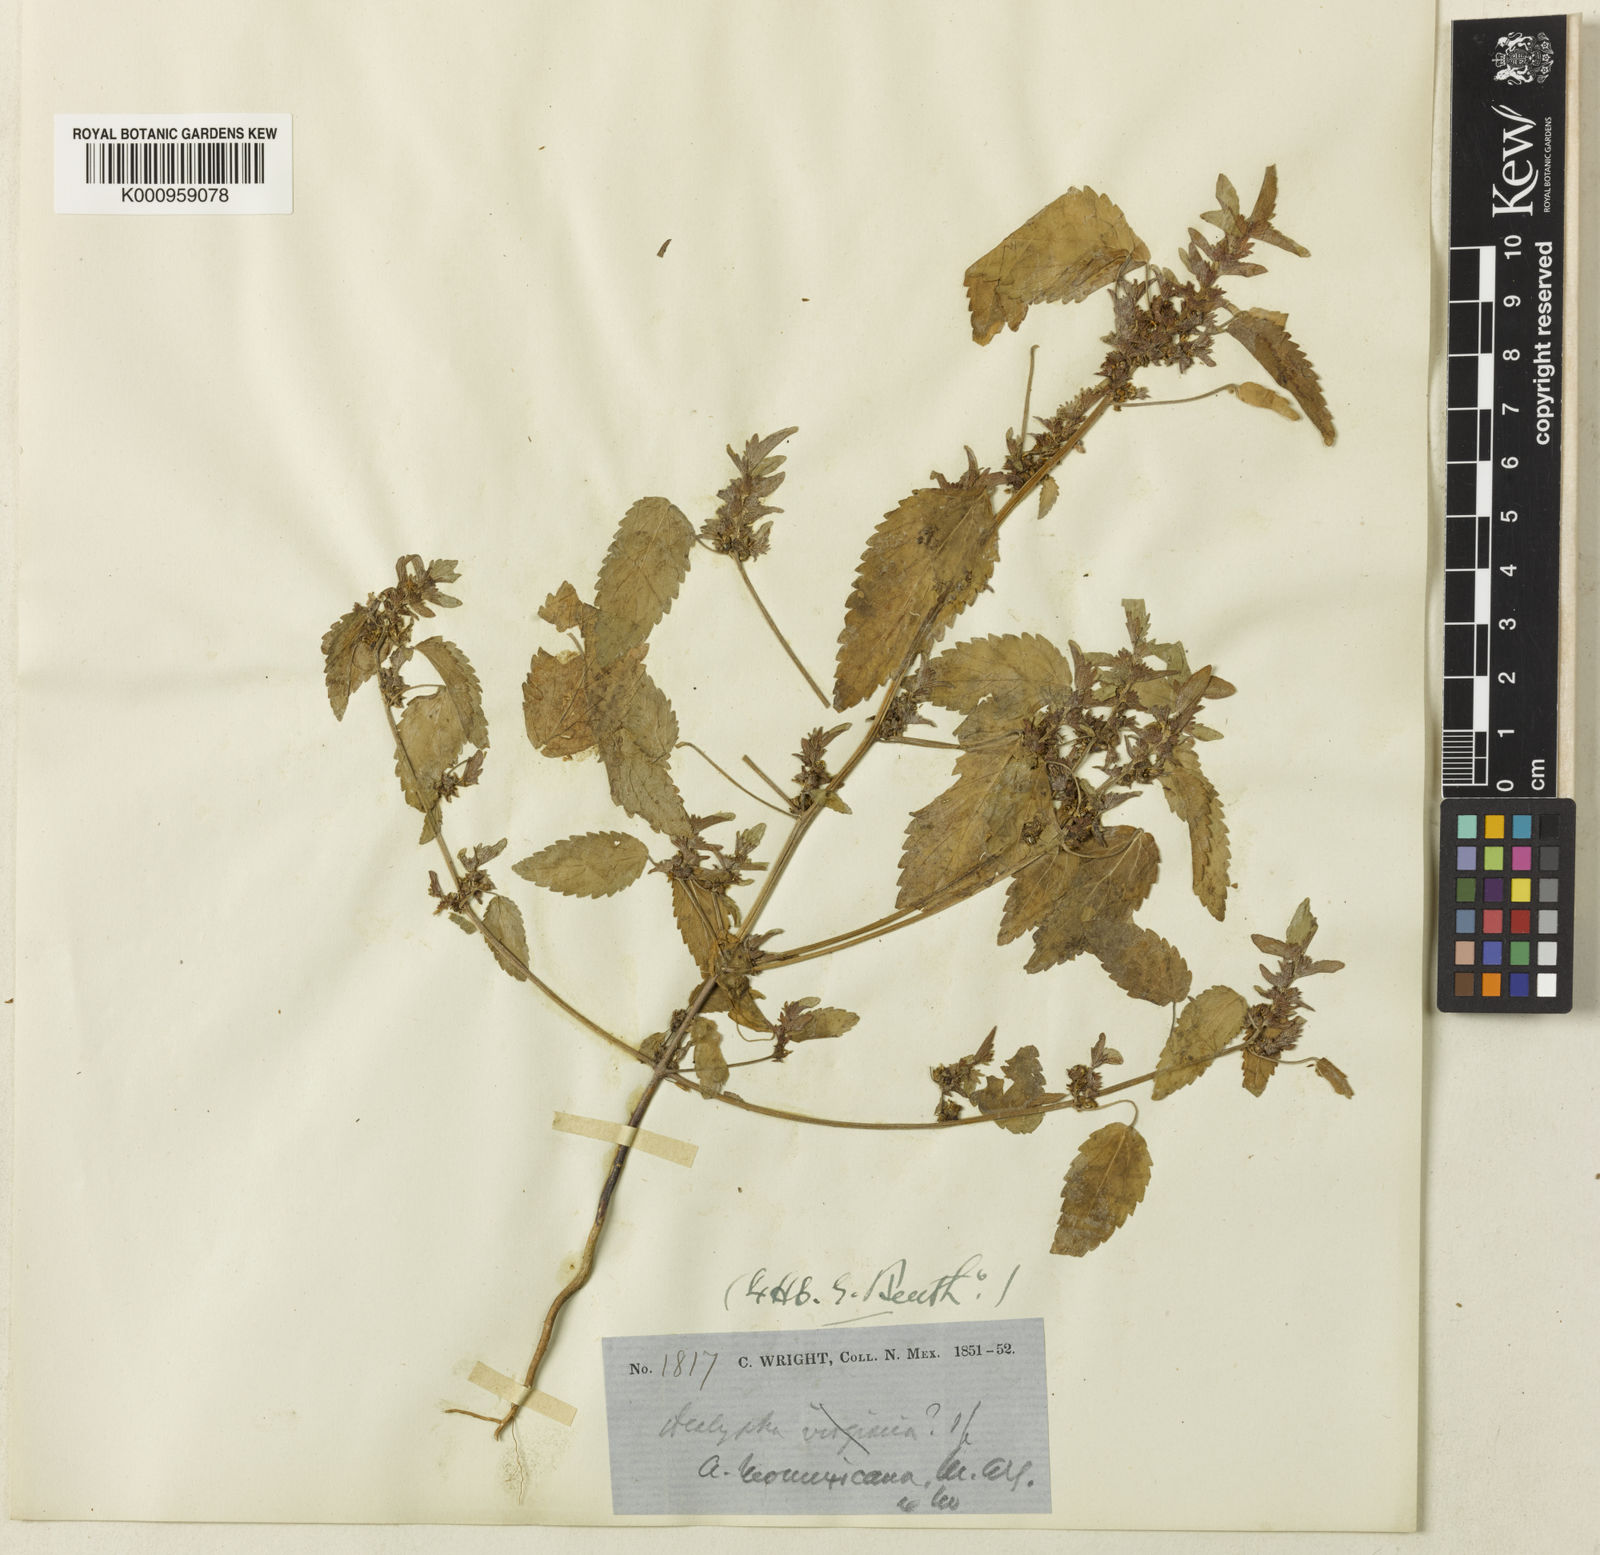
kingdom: Plantae
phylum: Tracheophyta
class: Magnoliopsida
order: Malpighiales
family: Euphorbiaceae
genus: Acalypha
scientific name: Acalypha
